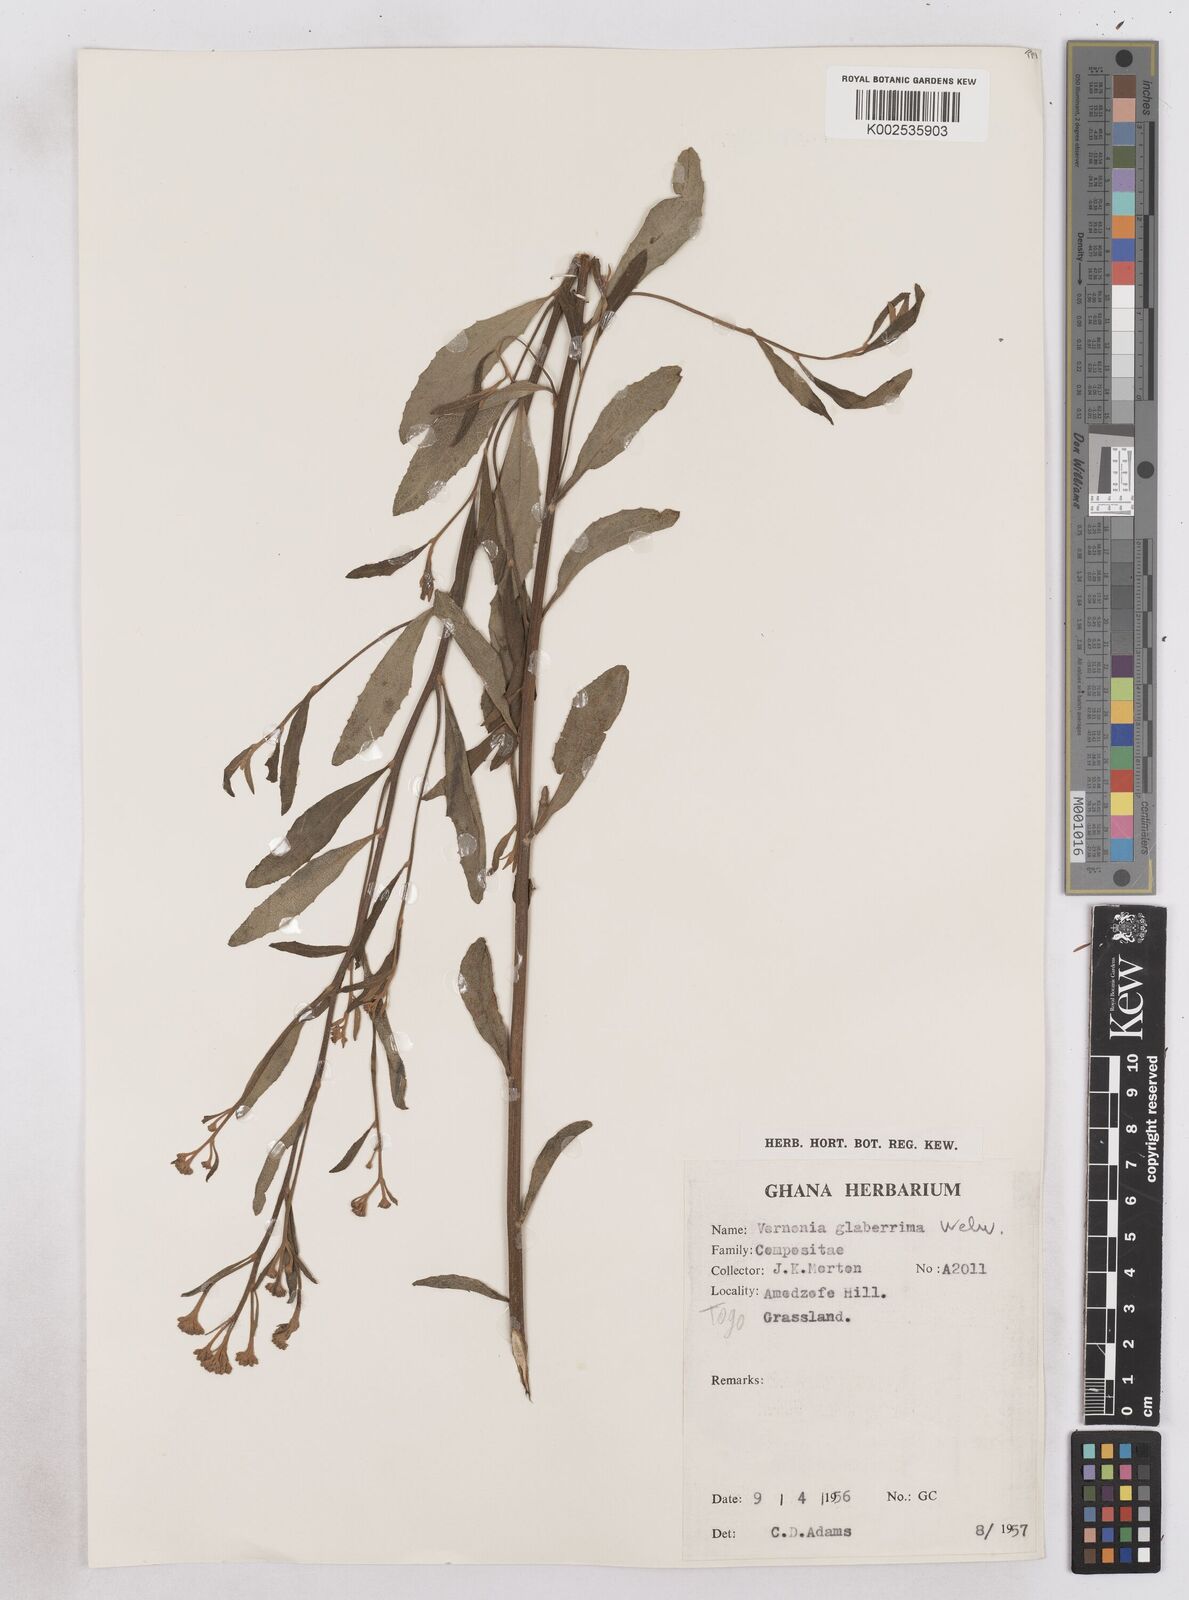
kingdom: Plantae
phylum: Tracheophyta
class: Magnoliopsida
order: Asterales
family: Asteraceae
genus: Gymnanthemum
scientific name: Gymnanthemum glaberrimum
